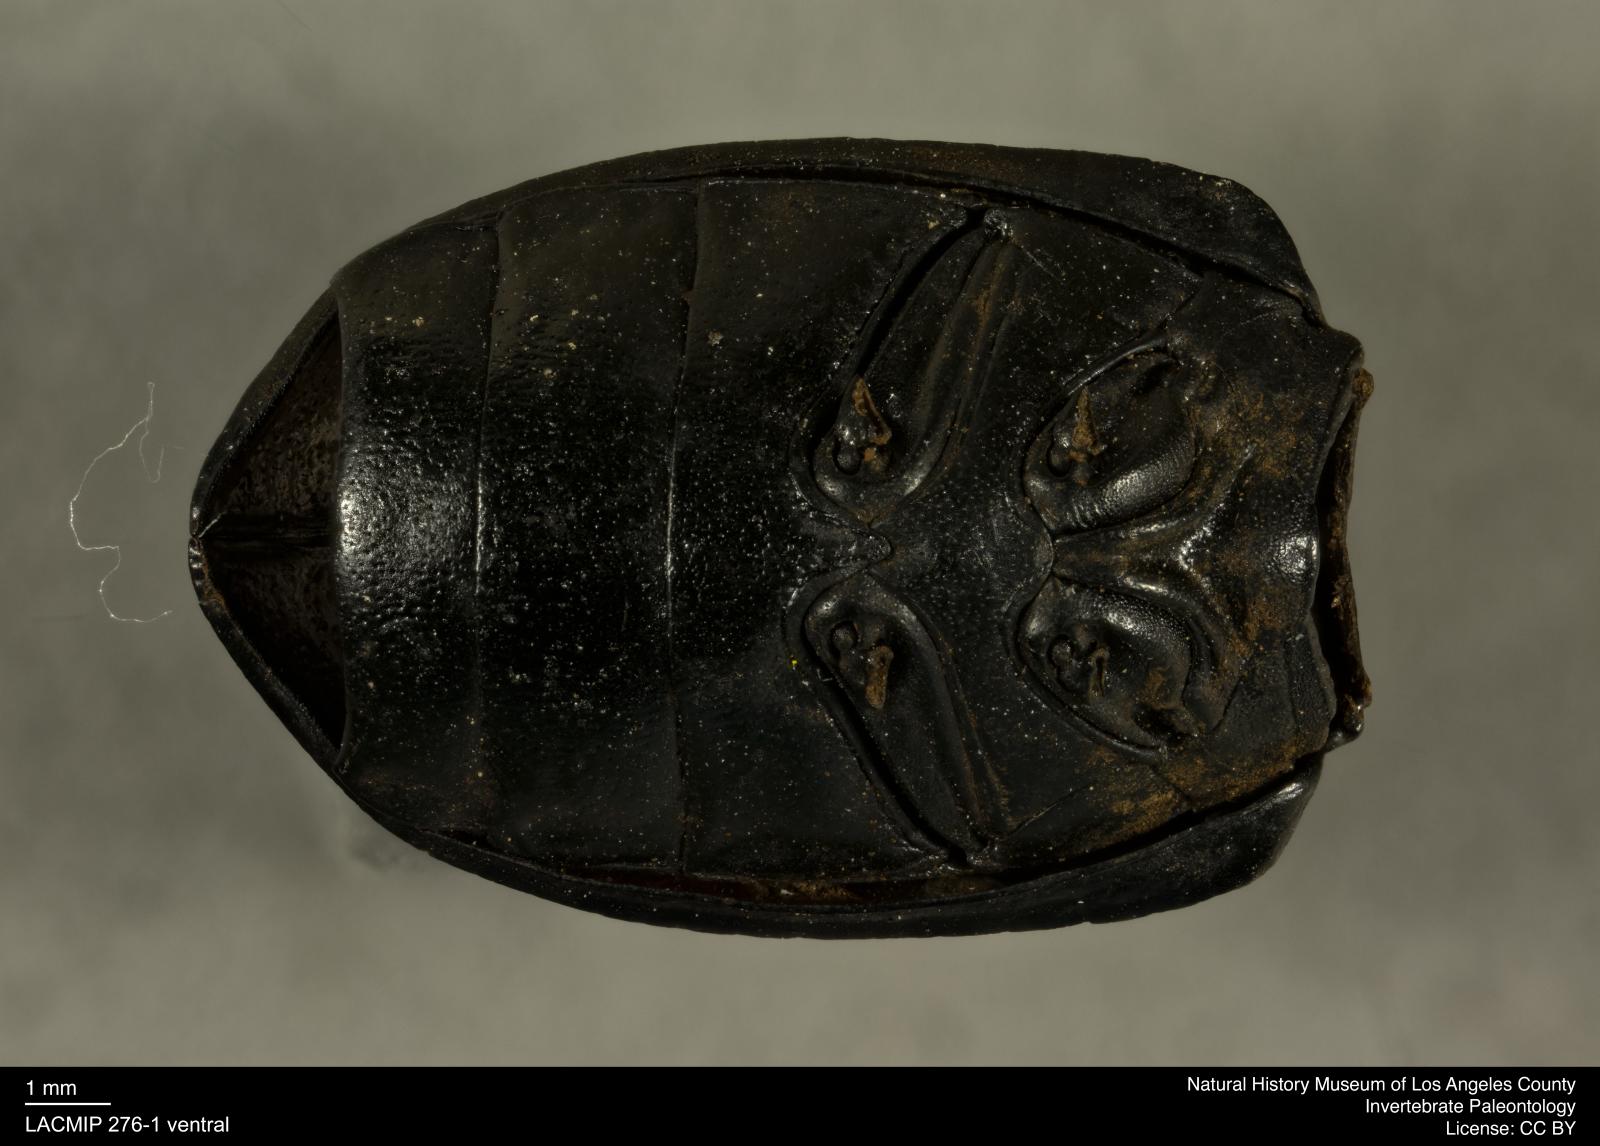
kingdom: Animalia
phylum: Arthropoda
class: Insecta
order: Coleoptera
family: Tenebrionidae
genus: Coniontis
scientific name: Coniontis abdominalis
